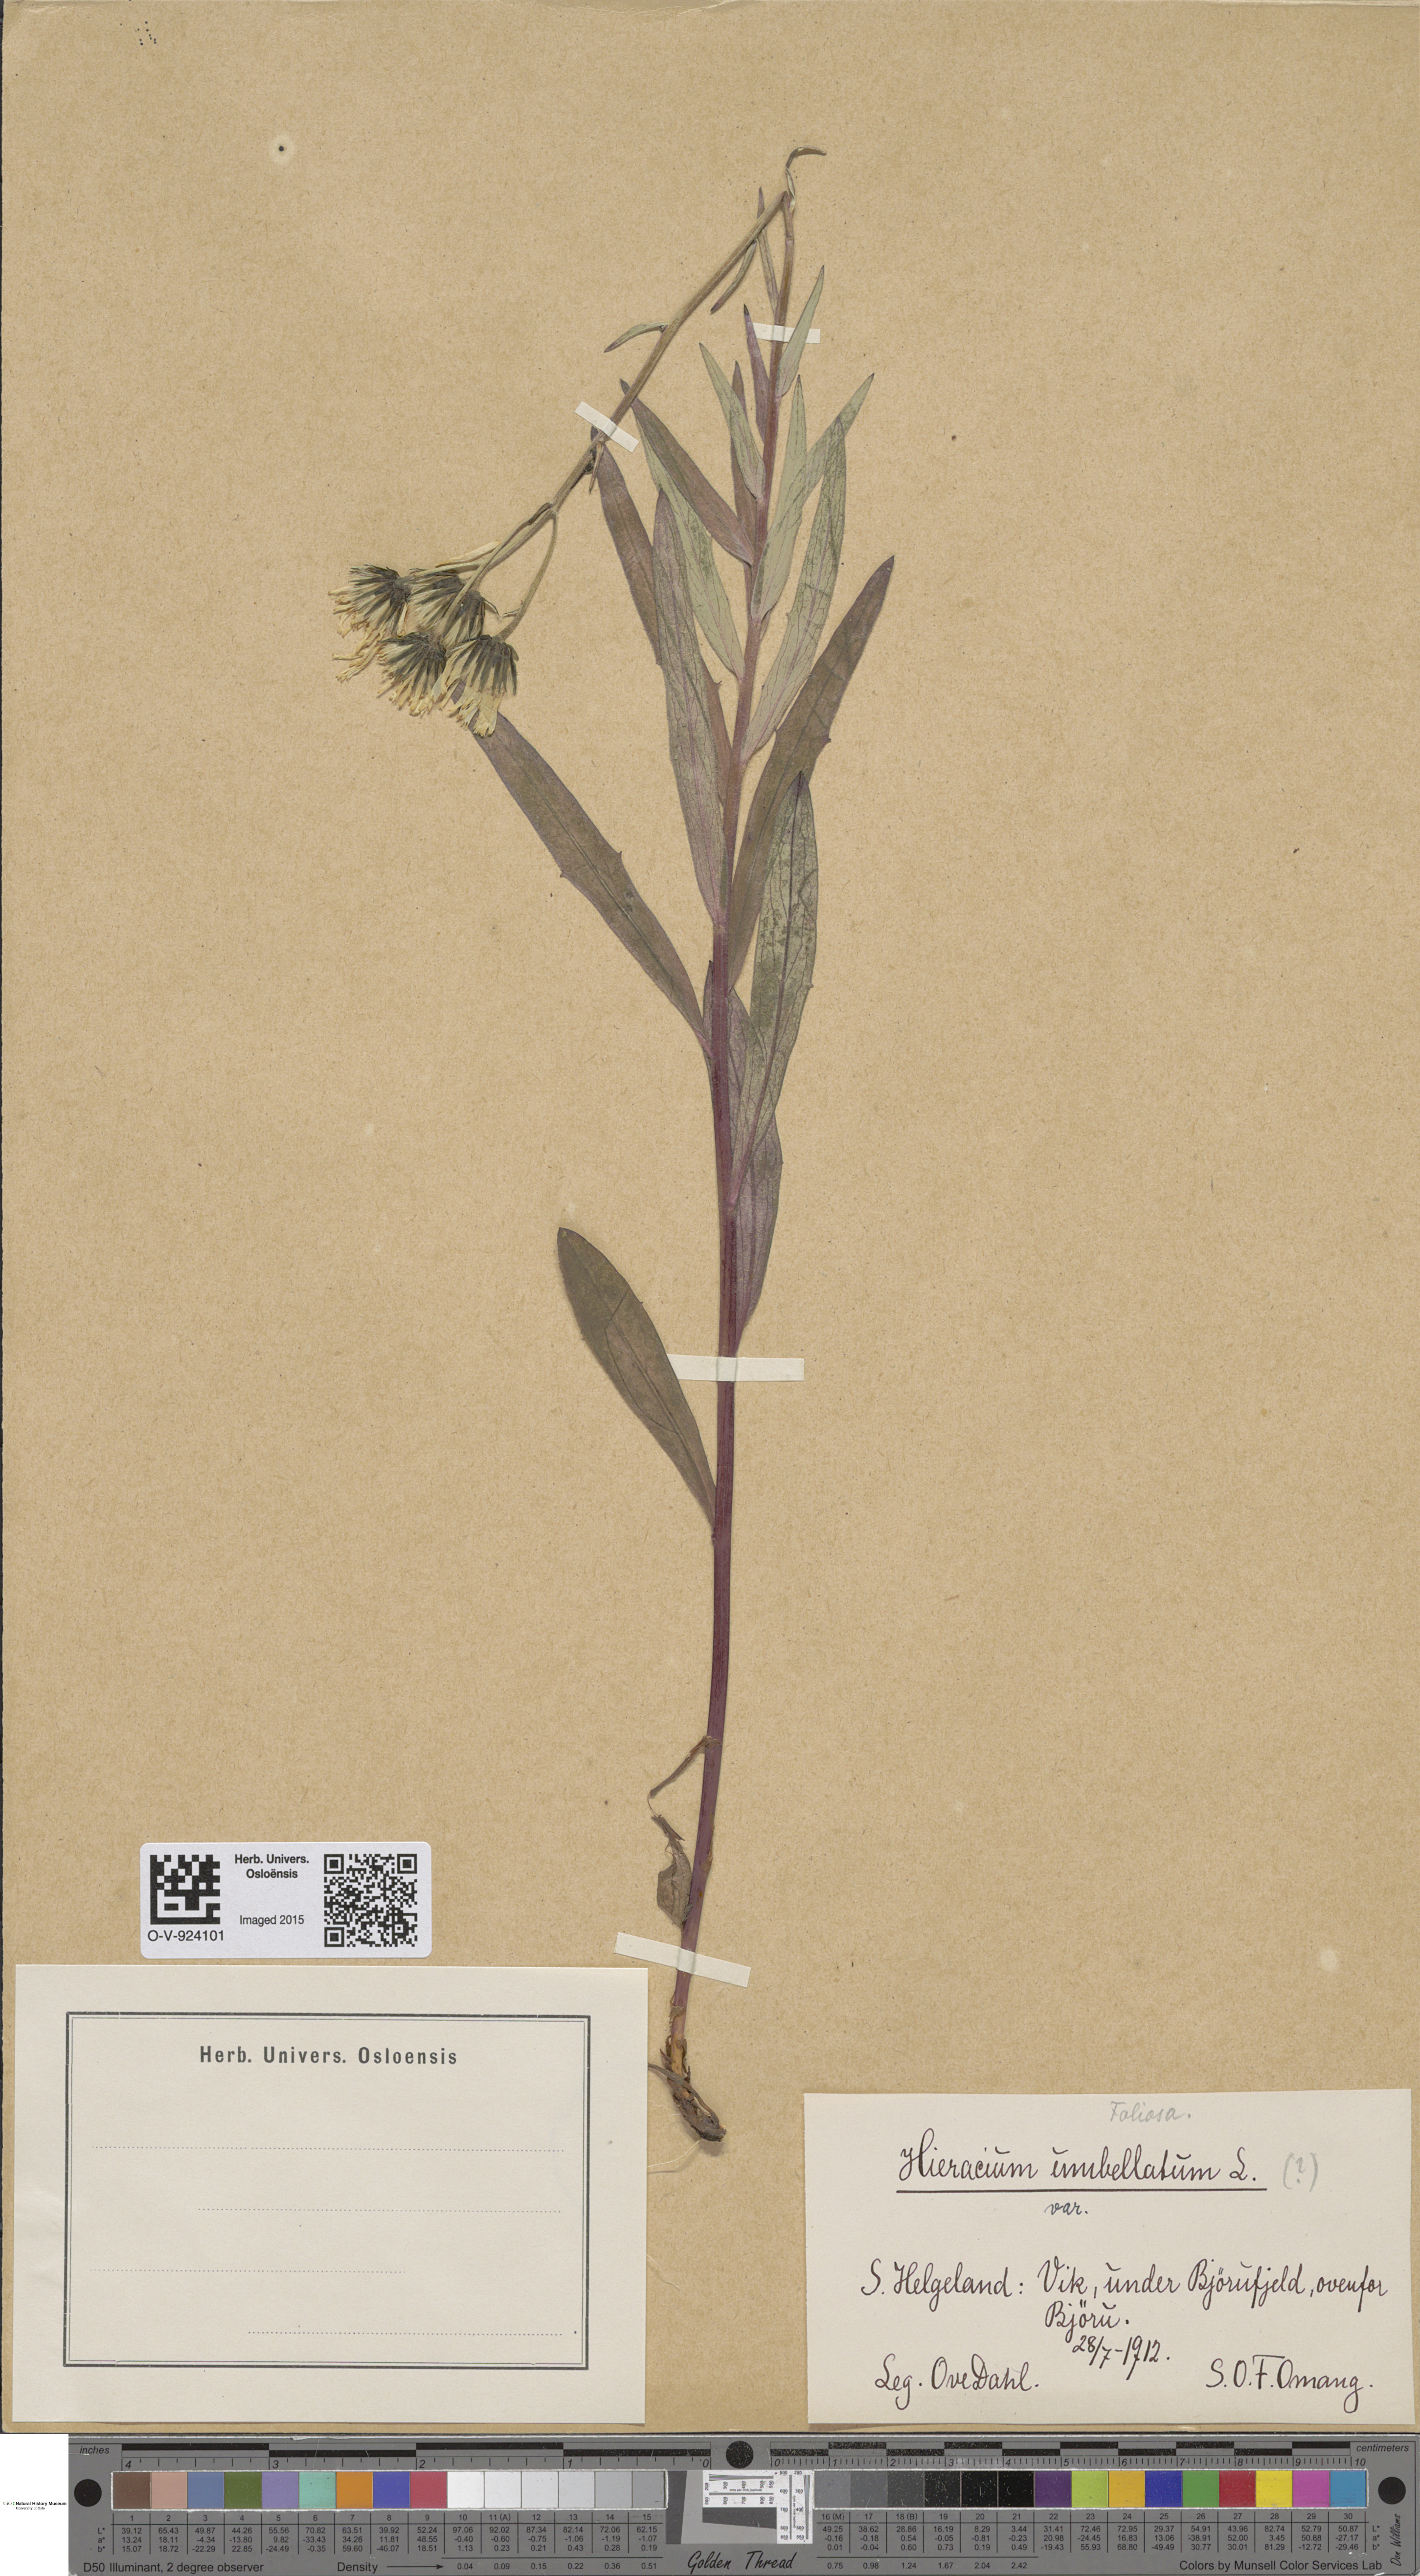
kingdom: Plantae
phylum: Tracheophyta
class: Magnoliopsida
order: Asterales
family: Asteraceae
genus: Hieracium
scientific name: Hieracium umbellatum
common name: Northern hawkweed
